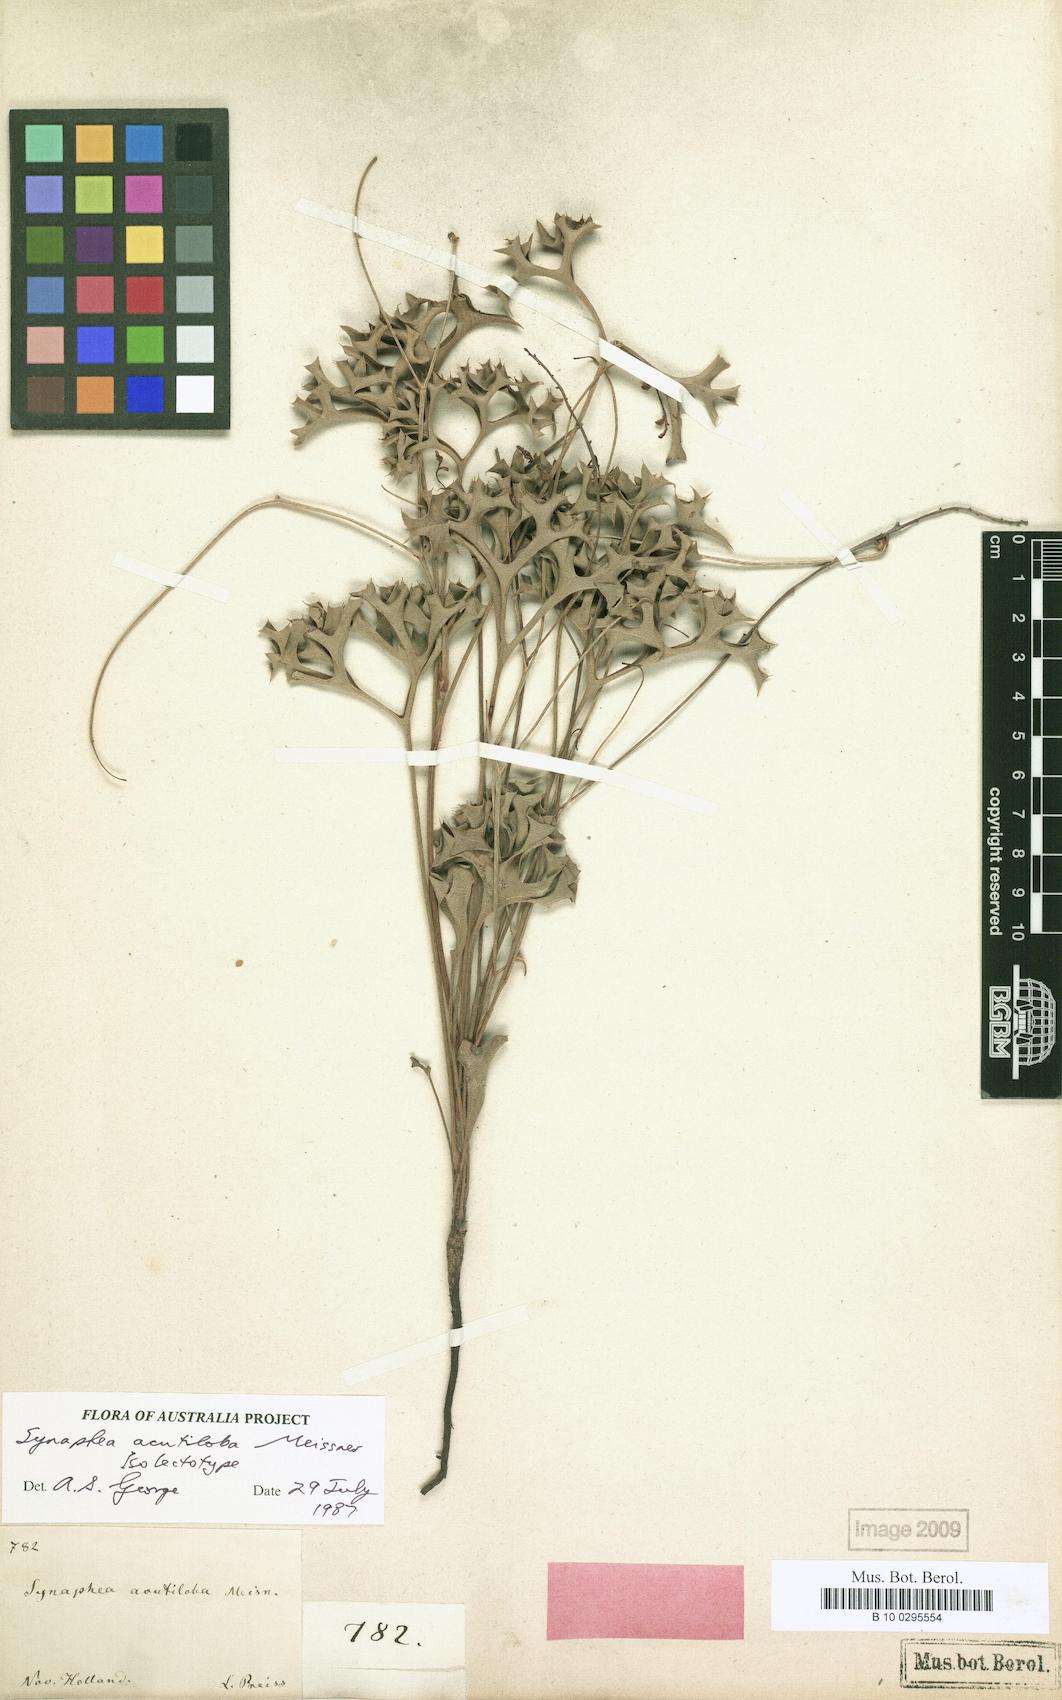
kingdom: Plantae
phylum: Tracheophyta
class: Magnoliopsida
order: Proteales
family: Proteaceae
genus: Synaphea
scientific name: Synaphea acutiloba
